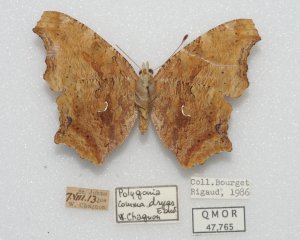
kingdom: Animalia
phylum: Arthropoda
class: Insecta
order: Lepidoptera
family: Nymphalidae
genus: Polygonia
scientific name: Polygonia comma
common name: Eastern Comma
